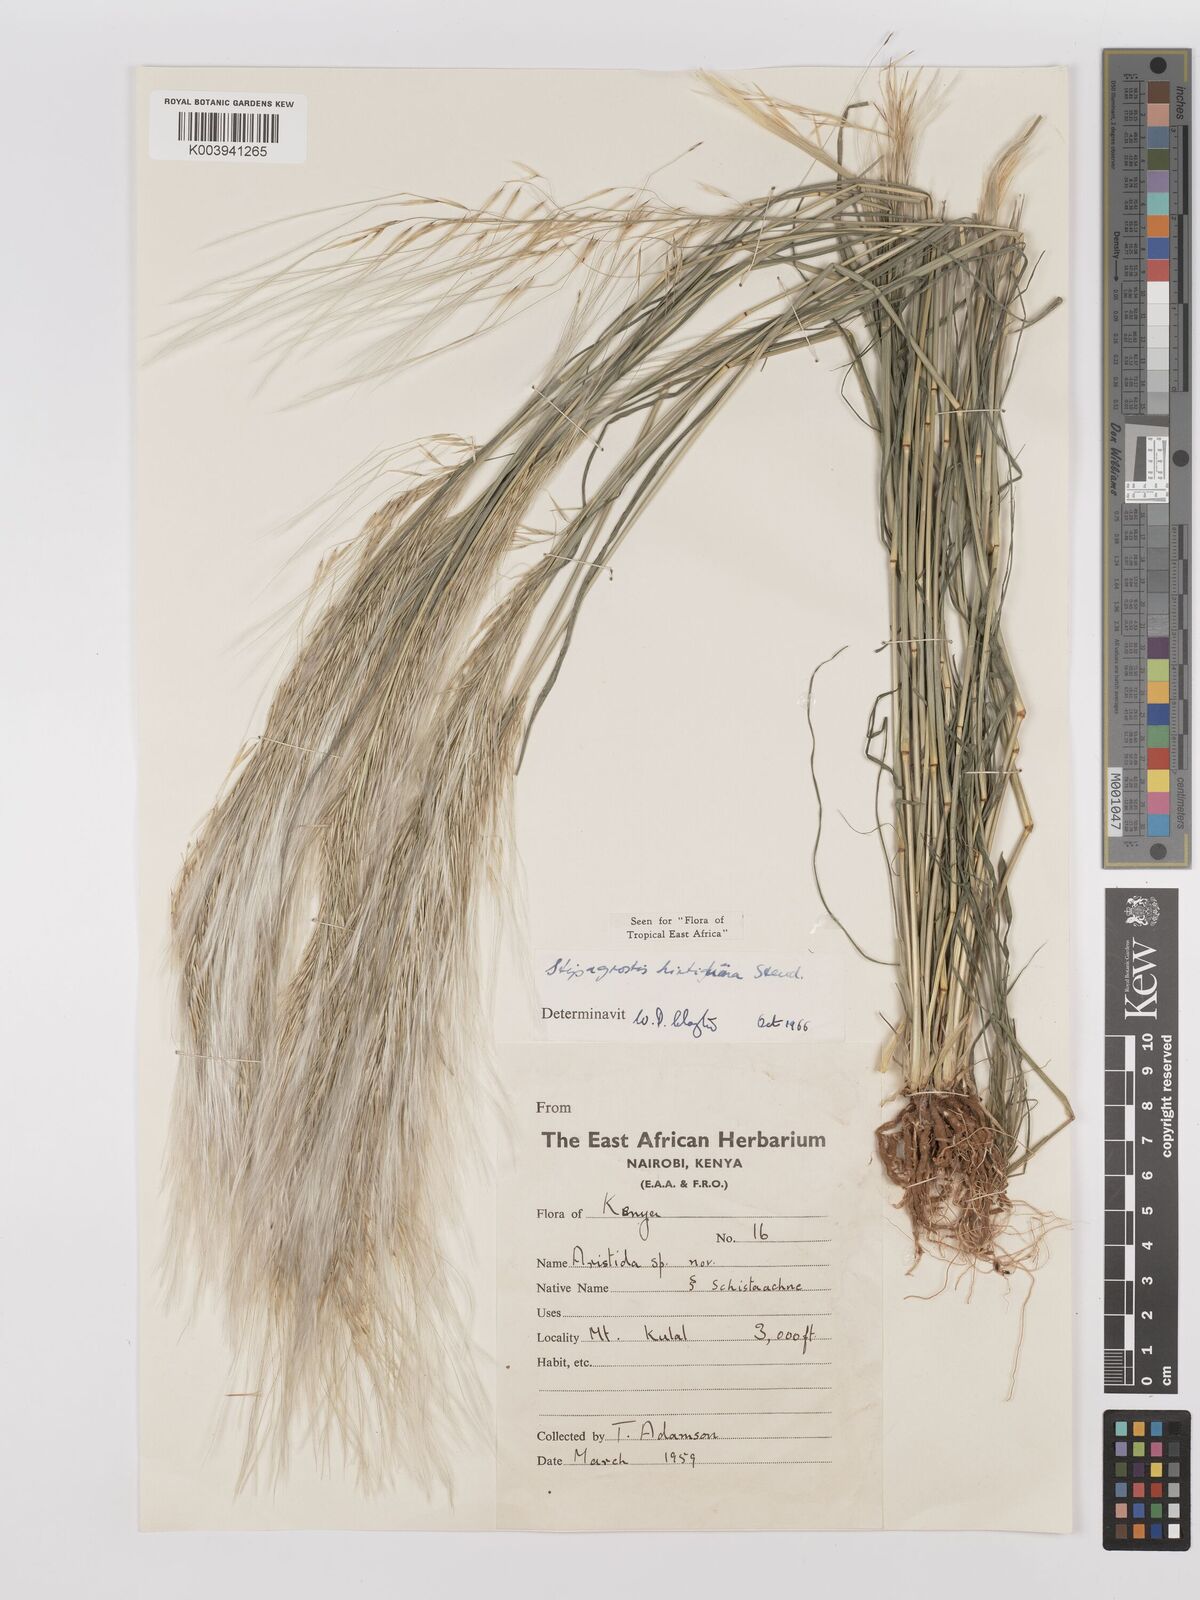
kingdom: Plantae
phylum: Tracheophyta
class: Liliopsida
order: Poales
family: Poaceae
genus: Stipagrostis
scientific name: Stipagrostis hirtigluma
